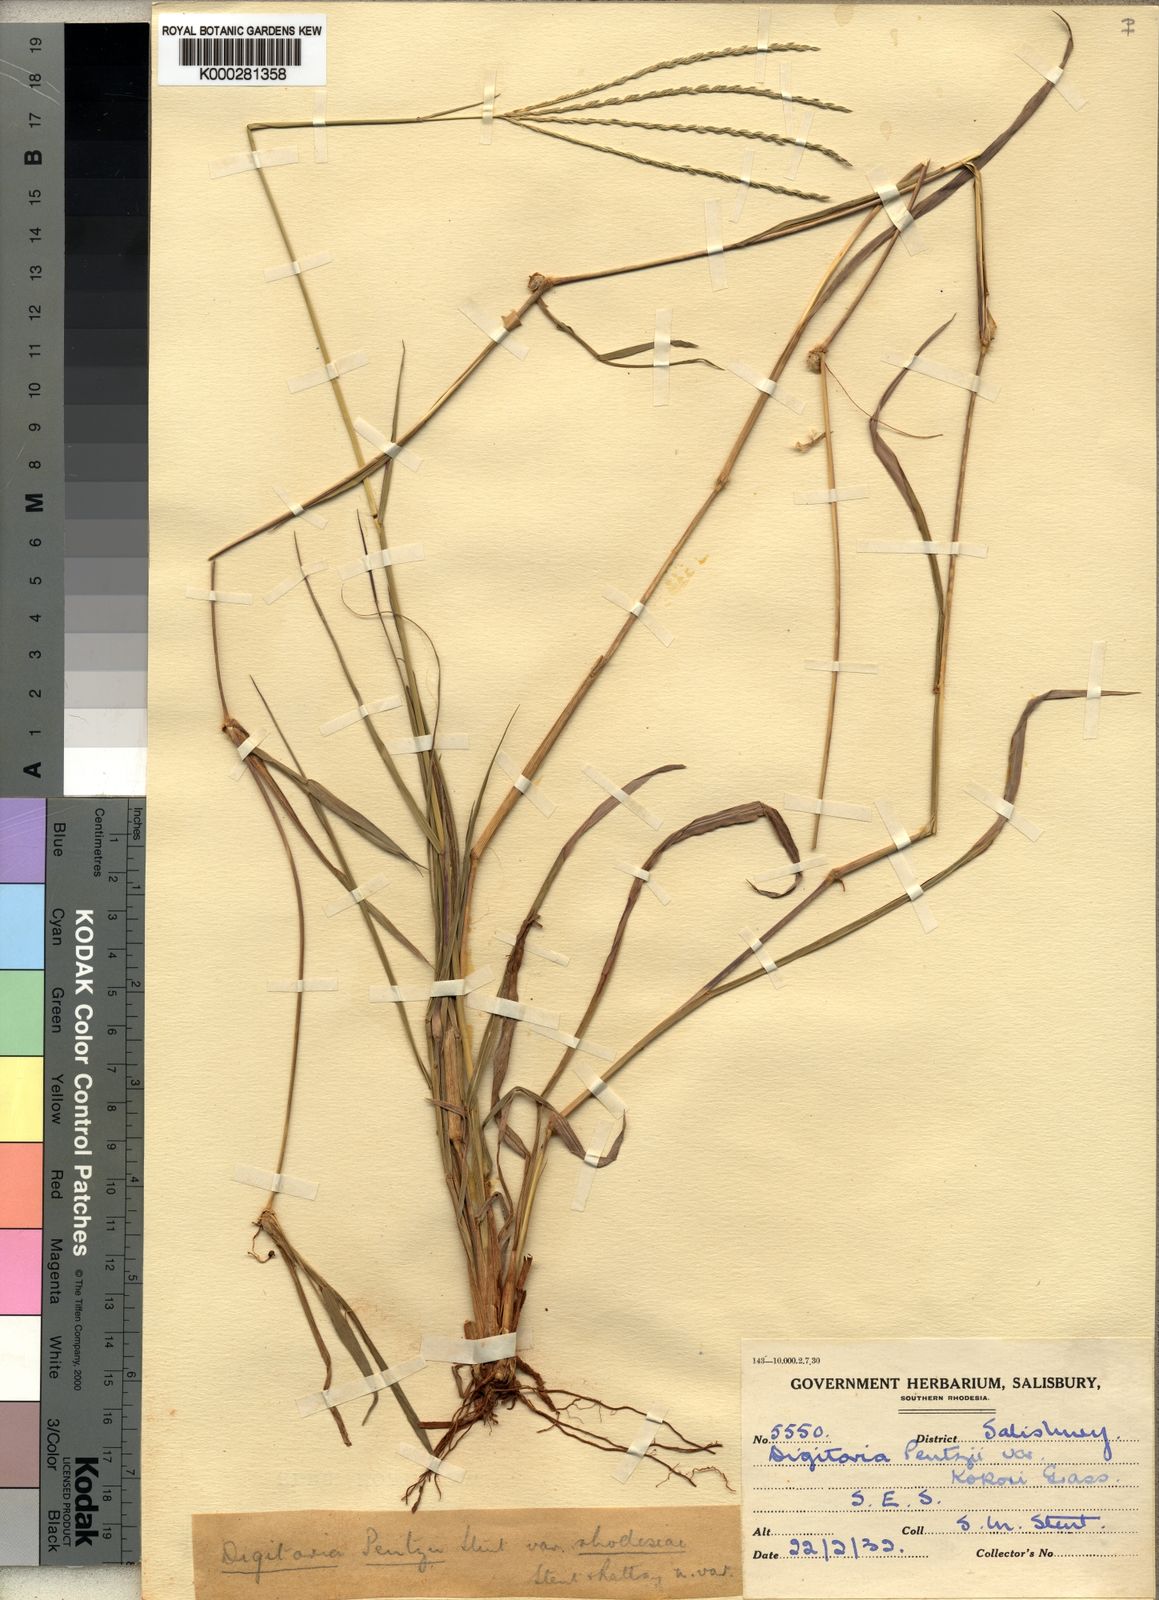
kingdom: Plantae
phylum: Tracheophyta
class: Liliopsida
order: Poales
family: Poaceae
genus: Digitaria
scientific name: Digitaria eriantha
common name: Digitgrass
